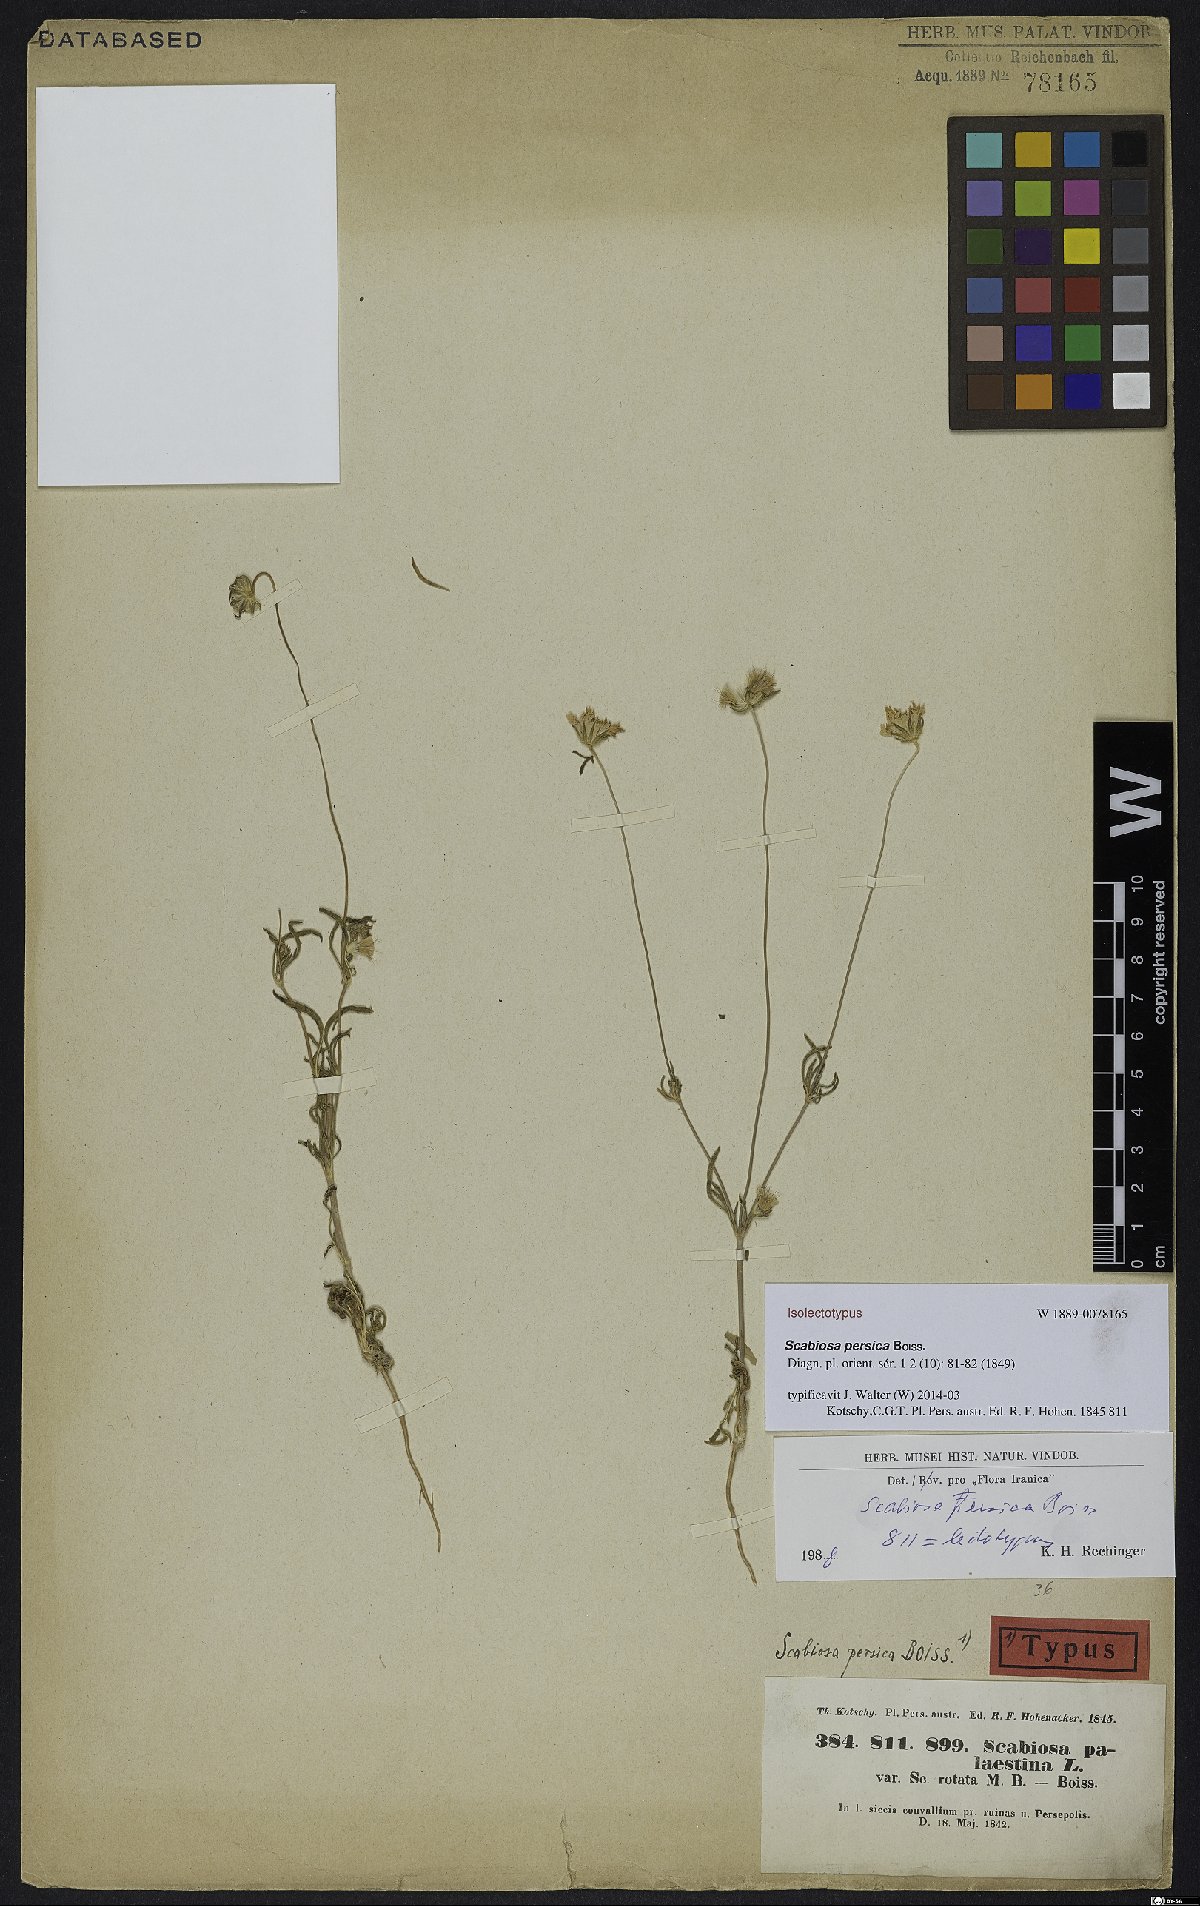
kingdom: Plantae
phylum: Tracheophyta
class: Magnoliopsida
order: Dipsacales
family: Caprifoliaceae
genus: Lomelosia
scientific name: Lomelosia persica
